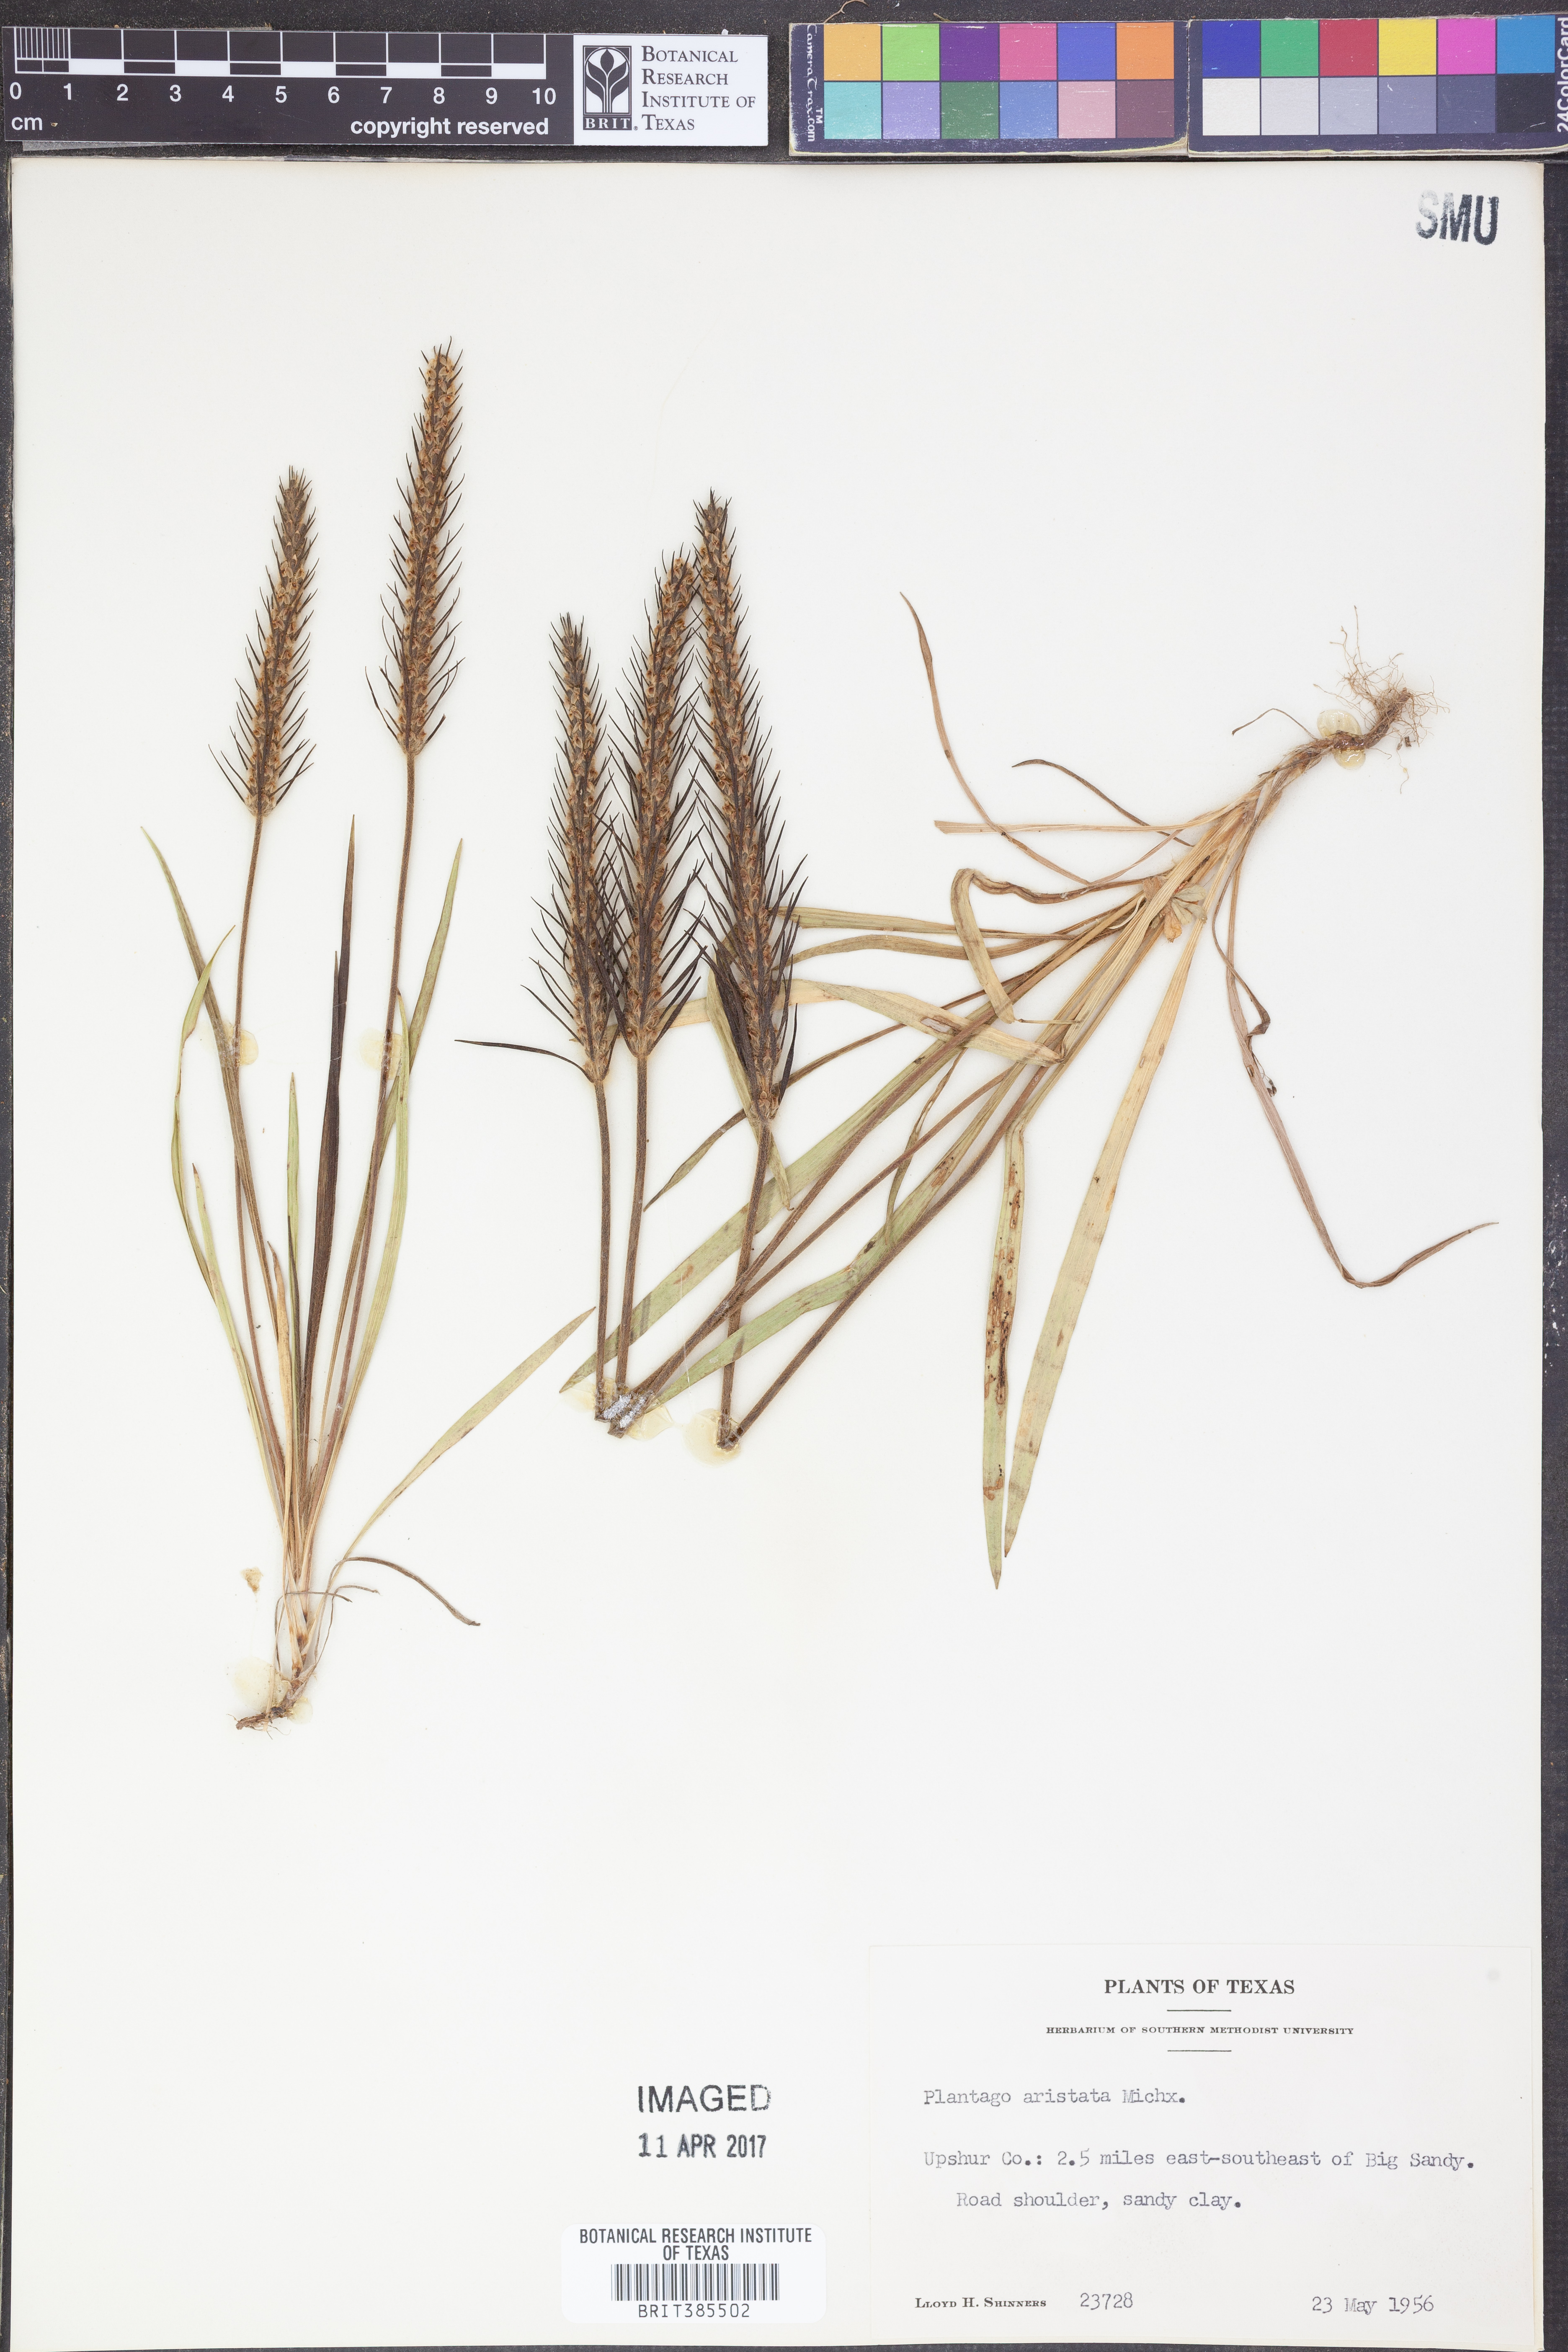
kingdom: Plantae
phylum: Tracheophyta
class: Magnoliopsida
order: Lamiales
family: Plantaginaceae
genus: Plantago
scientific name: Plantago aristata
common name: Bracted plantain
